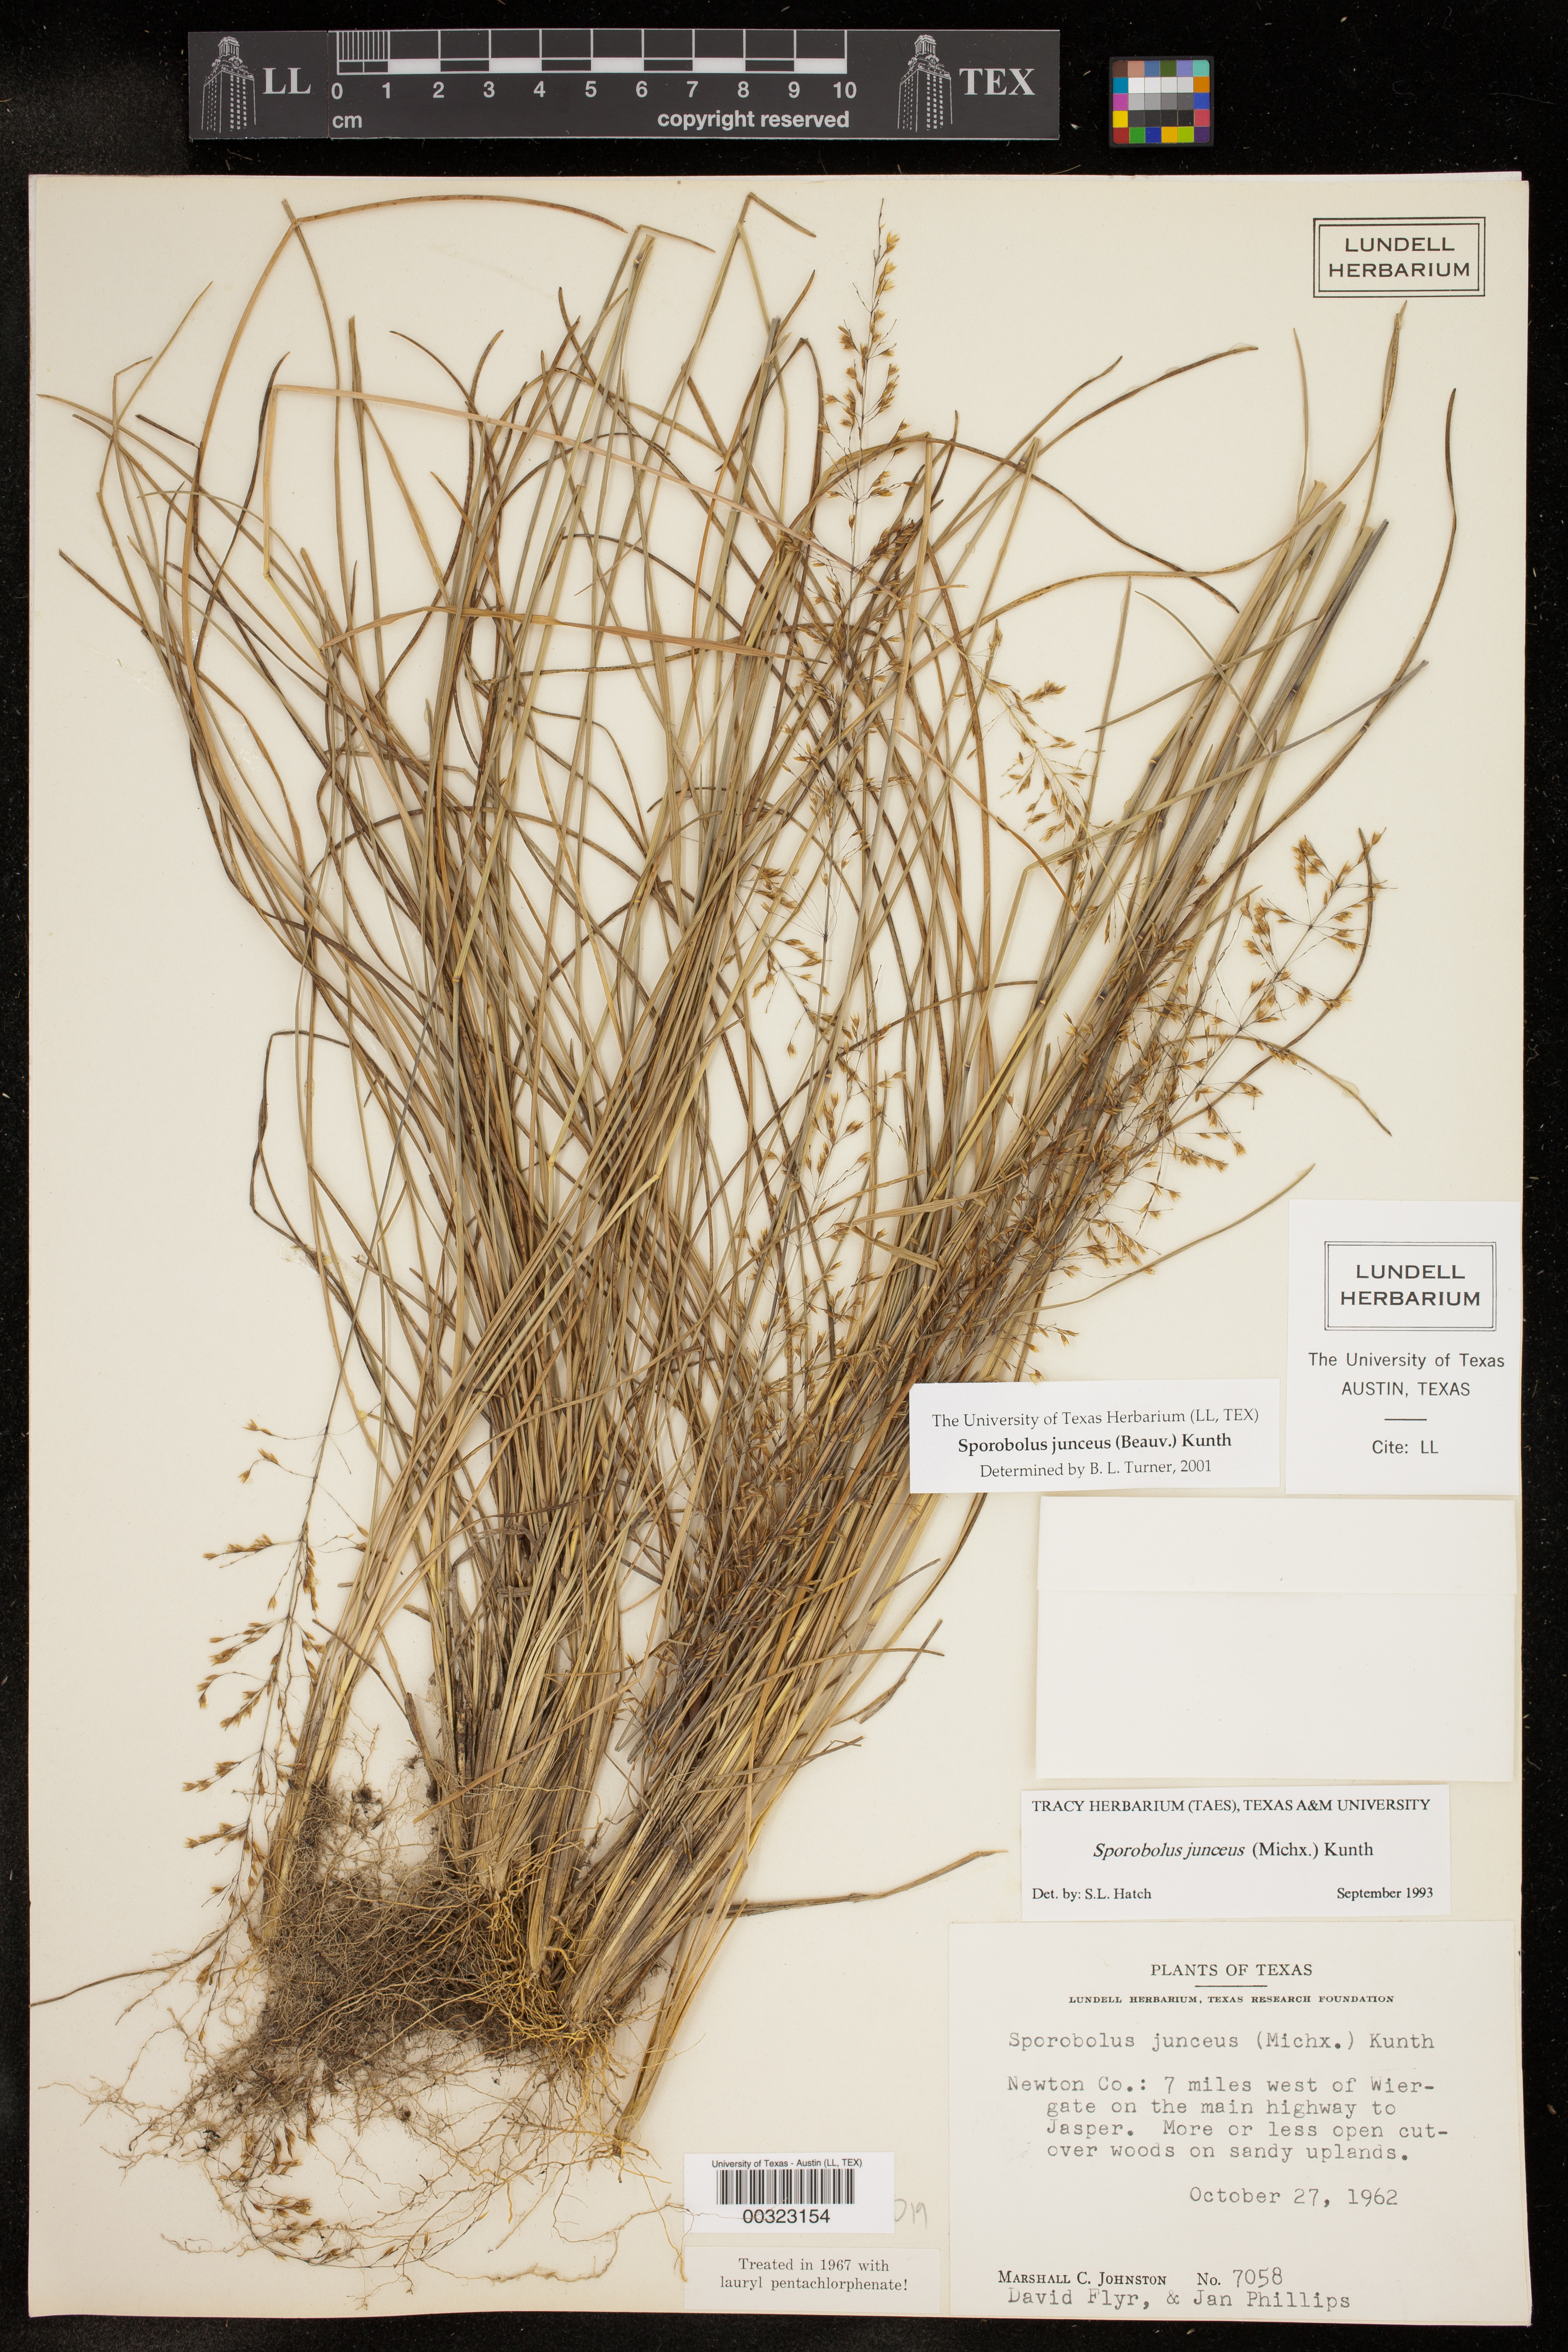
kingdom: Plantae
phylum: Tracheophyta
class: Liliopsida
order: Poales
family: Poaceae
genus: Sporobolus
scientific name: Sporobolus junceus
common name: Lizard grass
